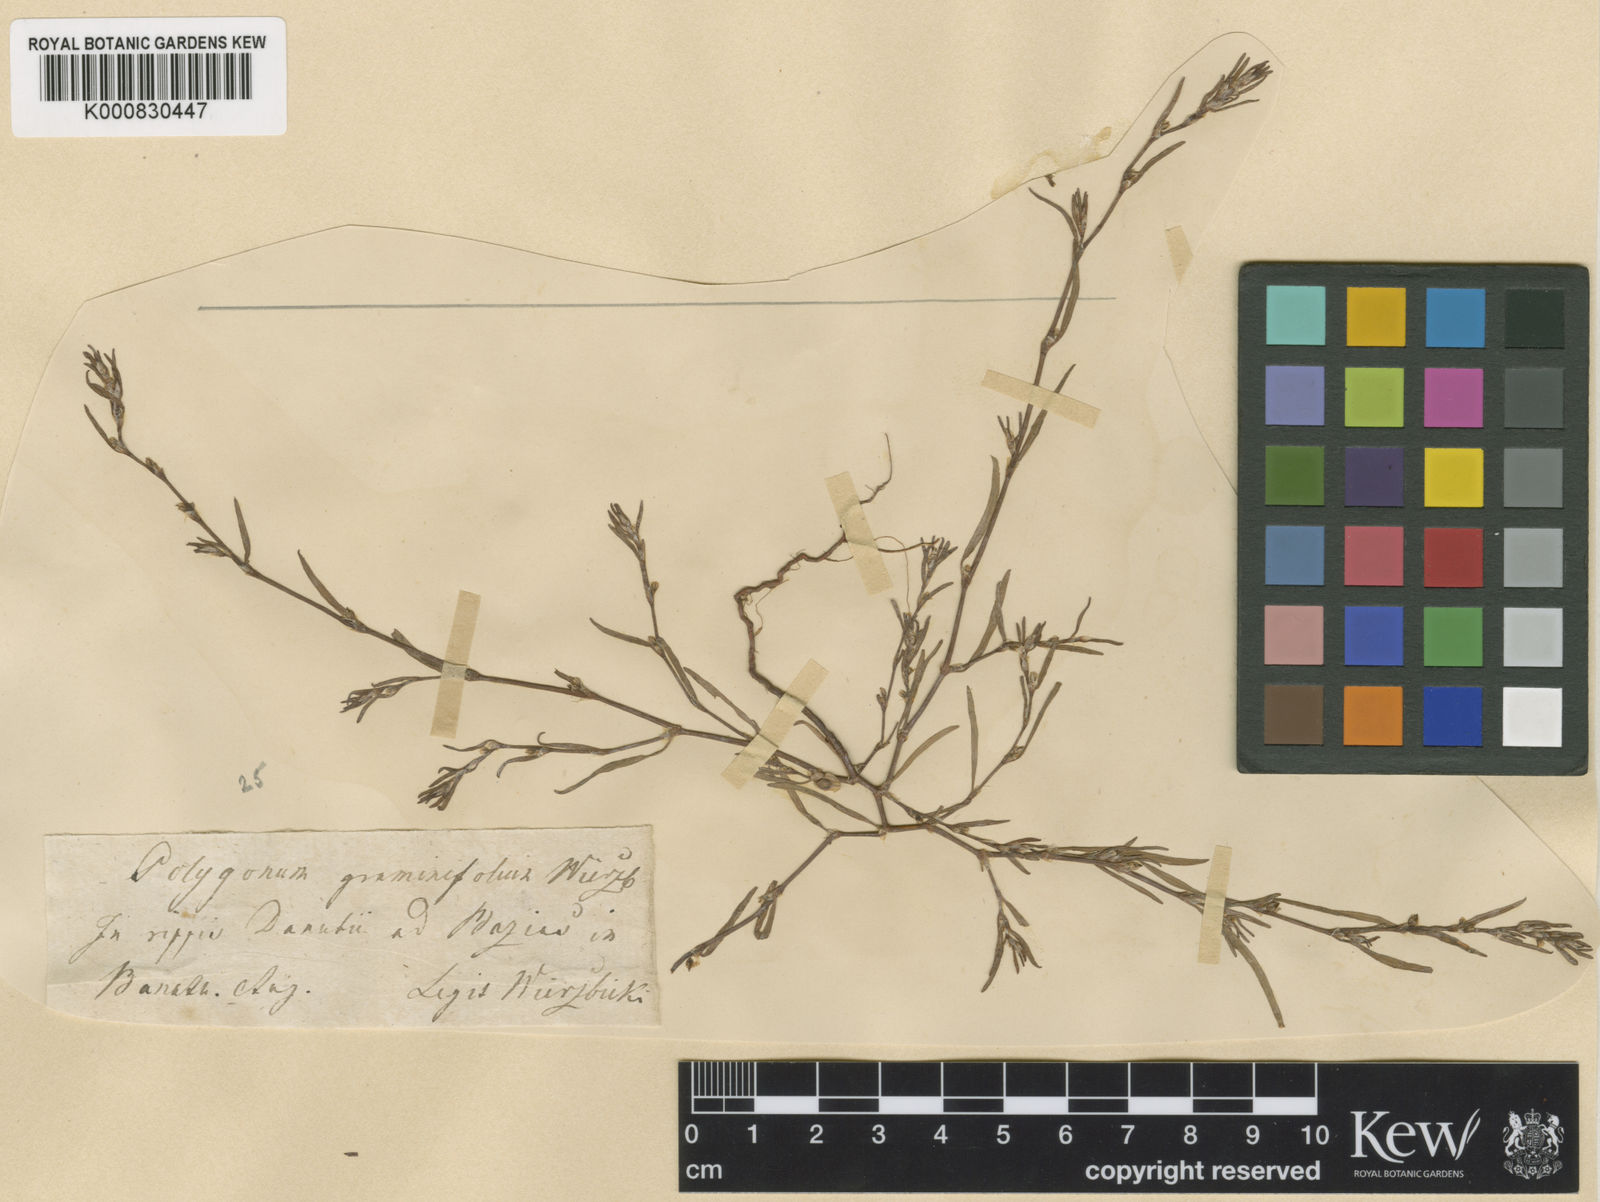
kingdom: Plantae
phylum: Tracheophyta
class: Magnoliopsida
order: Caryophyllales
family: Polygonaceae
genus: Polygonum
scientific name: Polygonum
